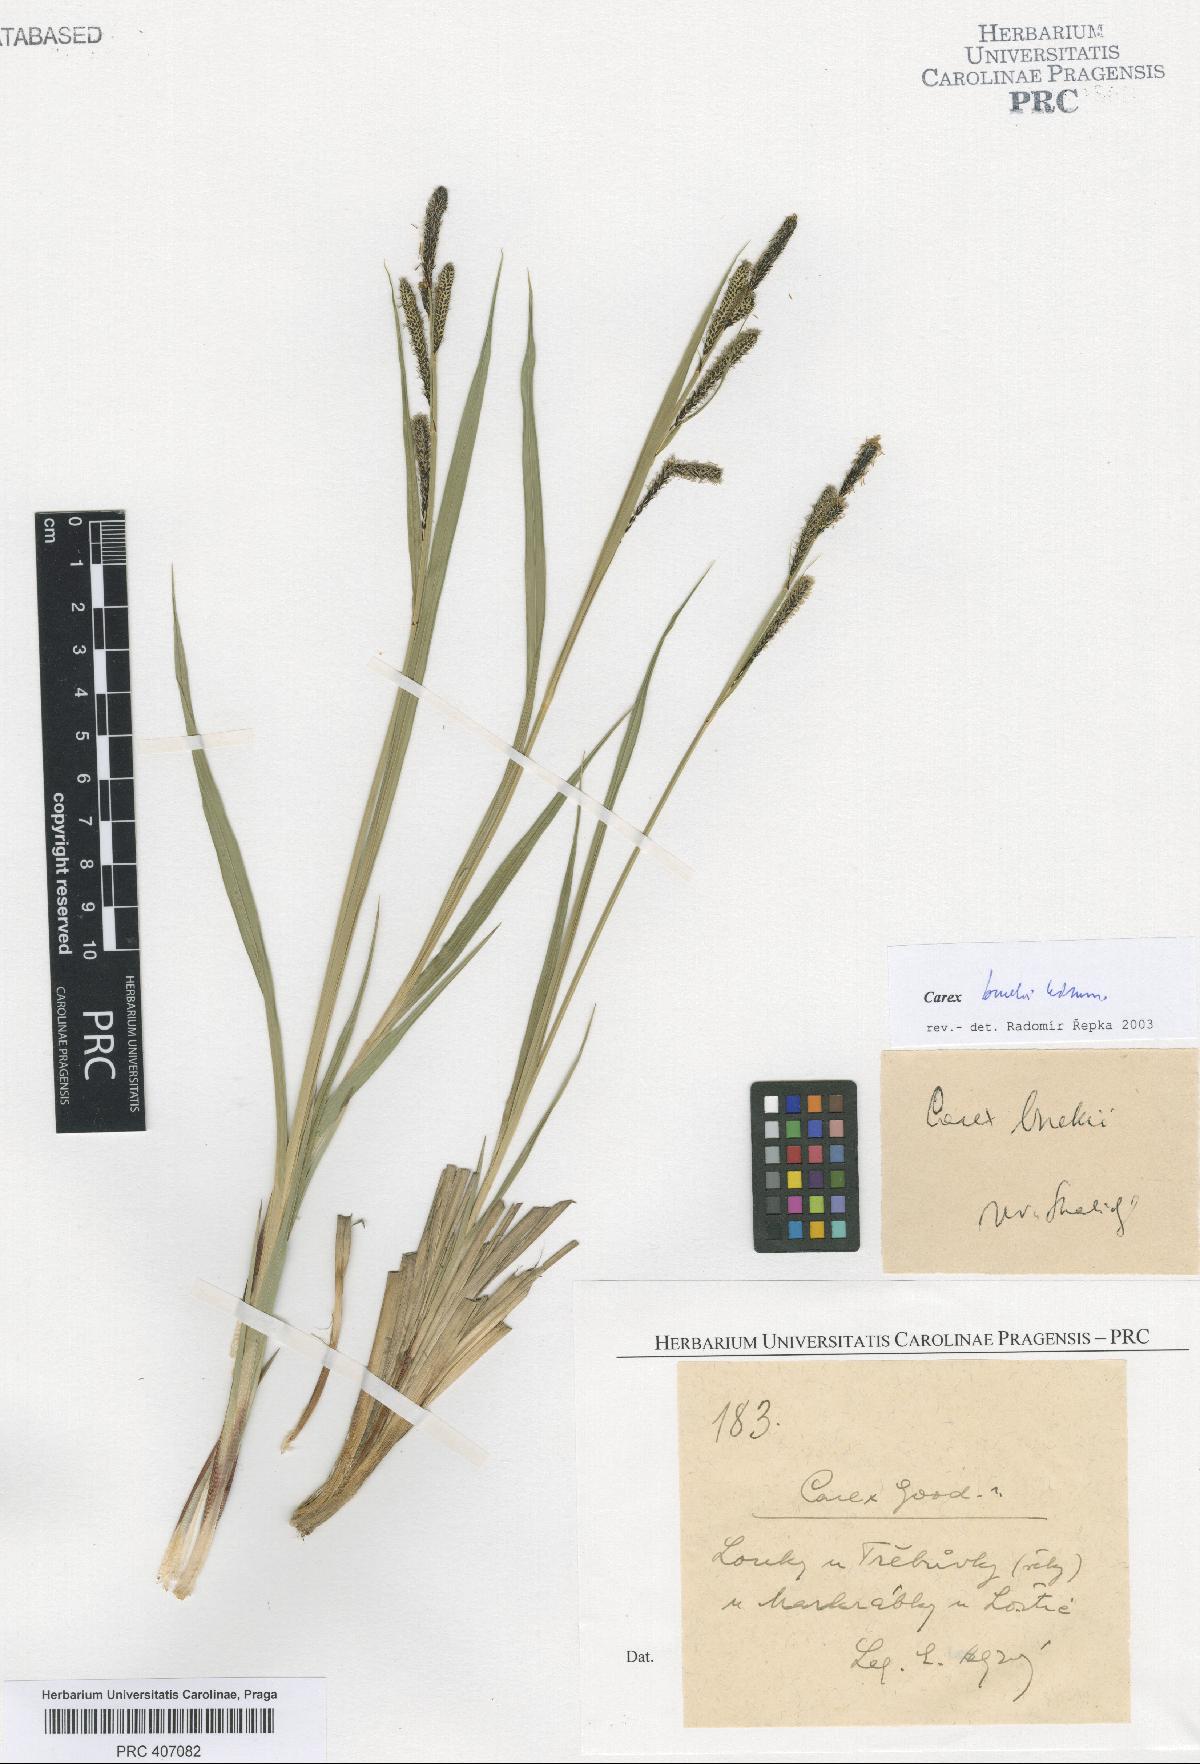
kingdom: Plantae
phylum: Tracheophyta
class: Liliopsida
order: Poales
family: Cyperaceae
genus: Carex
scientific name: Carex buekii
